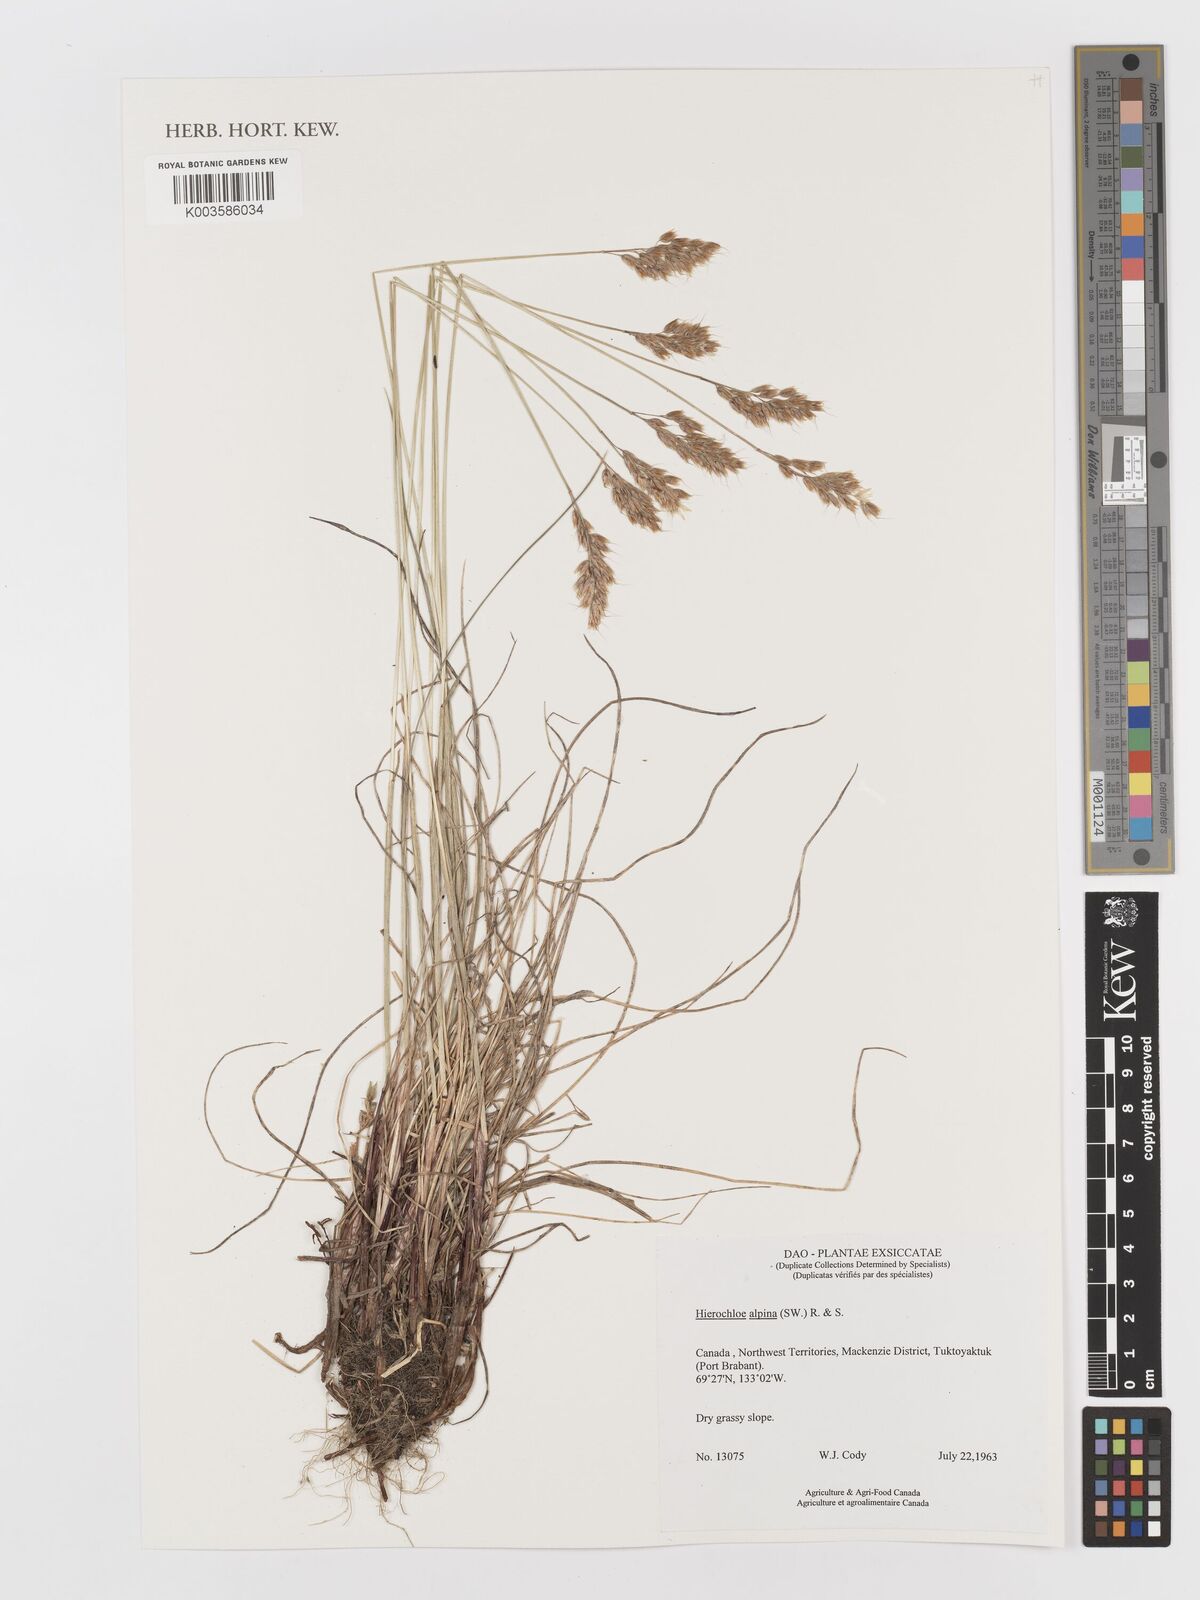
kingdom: Plantae
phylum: Tracheophyta
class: Liliopsida
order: Poales
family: Poaceae
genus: Anthoxanthum
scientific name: Anthoxanthum monticola
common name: Alpine sweetgrass
